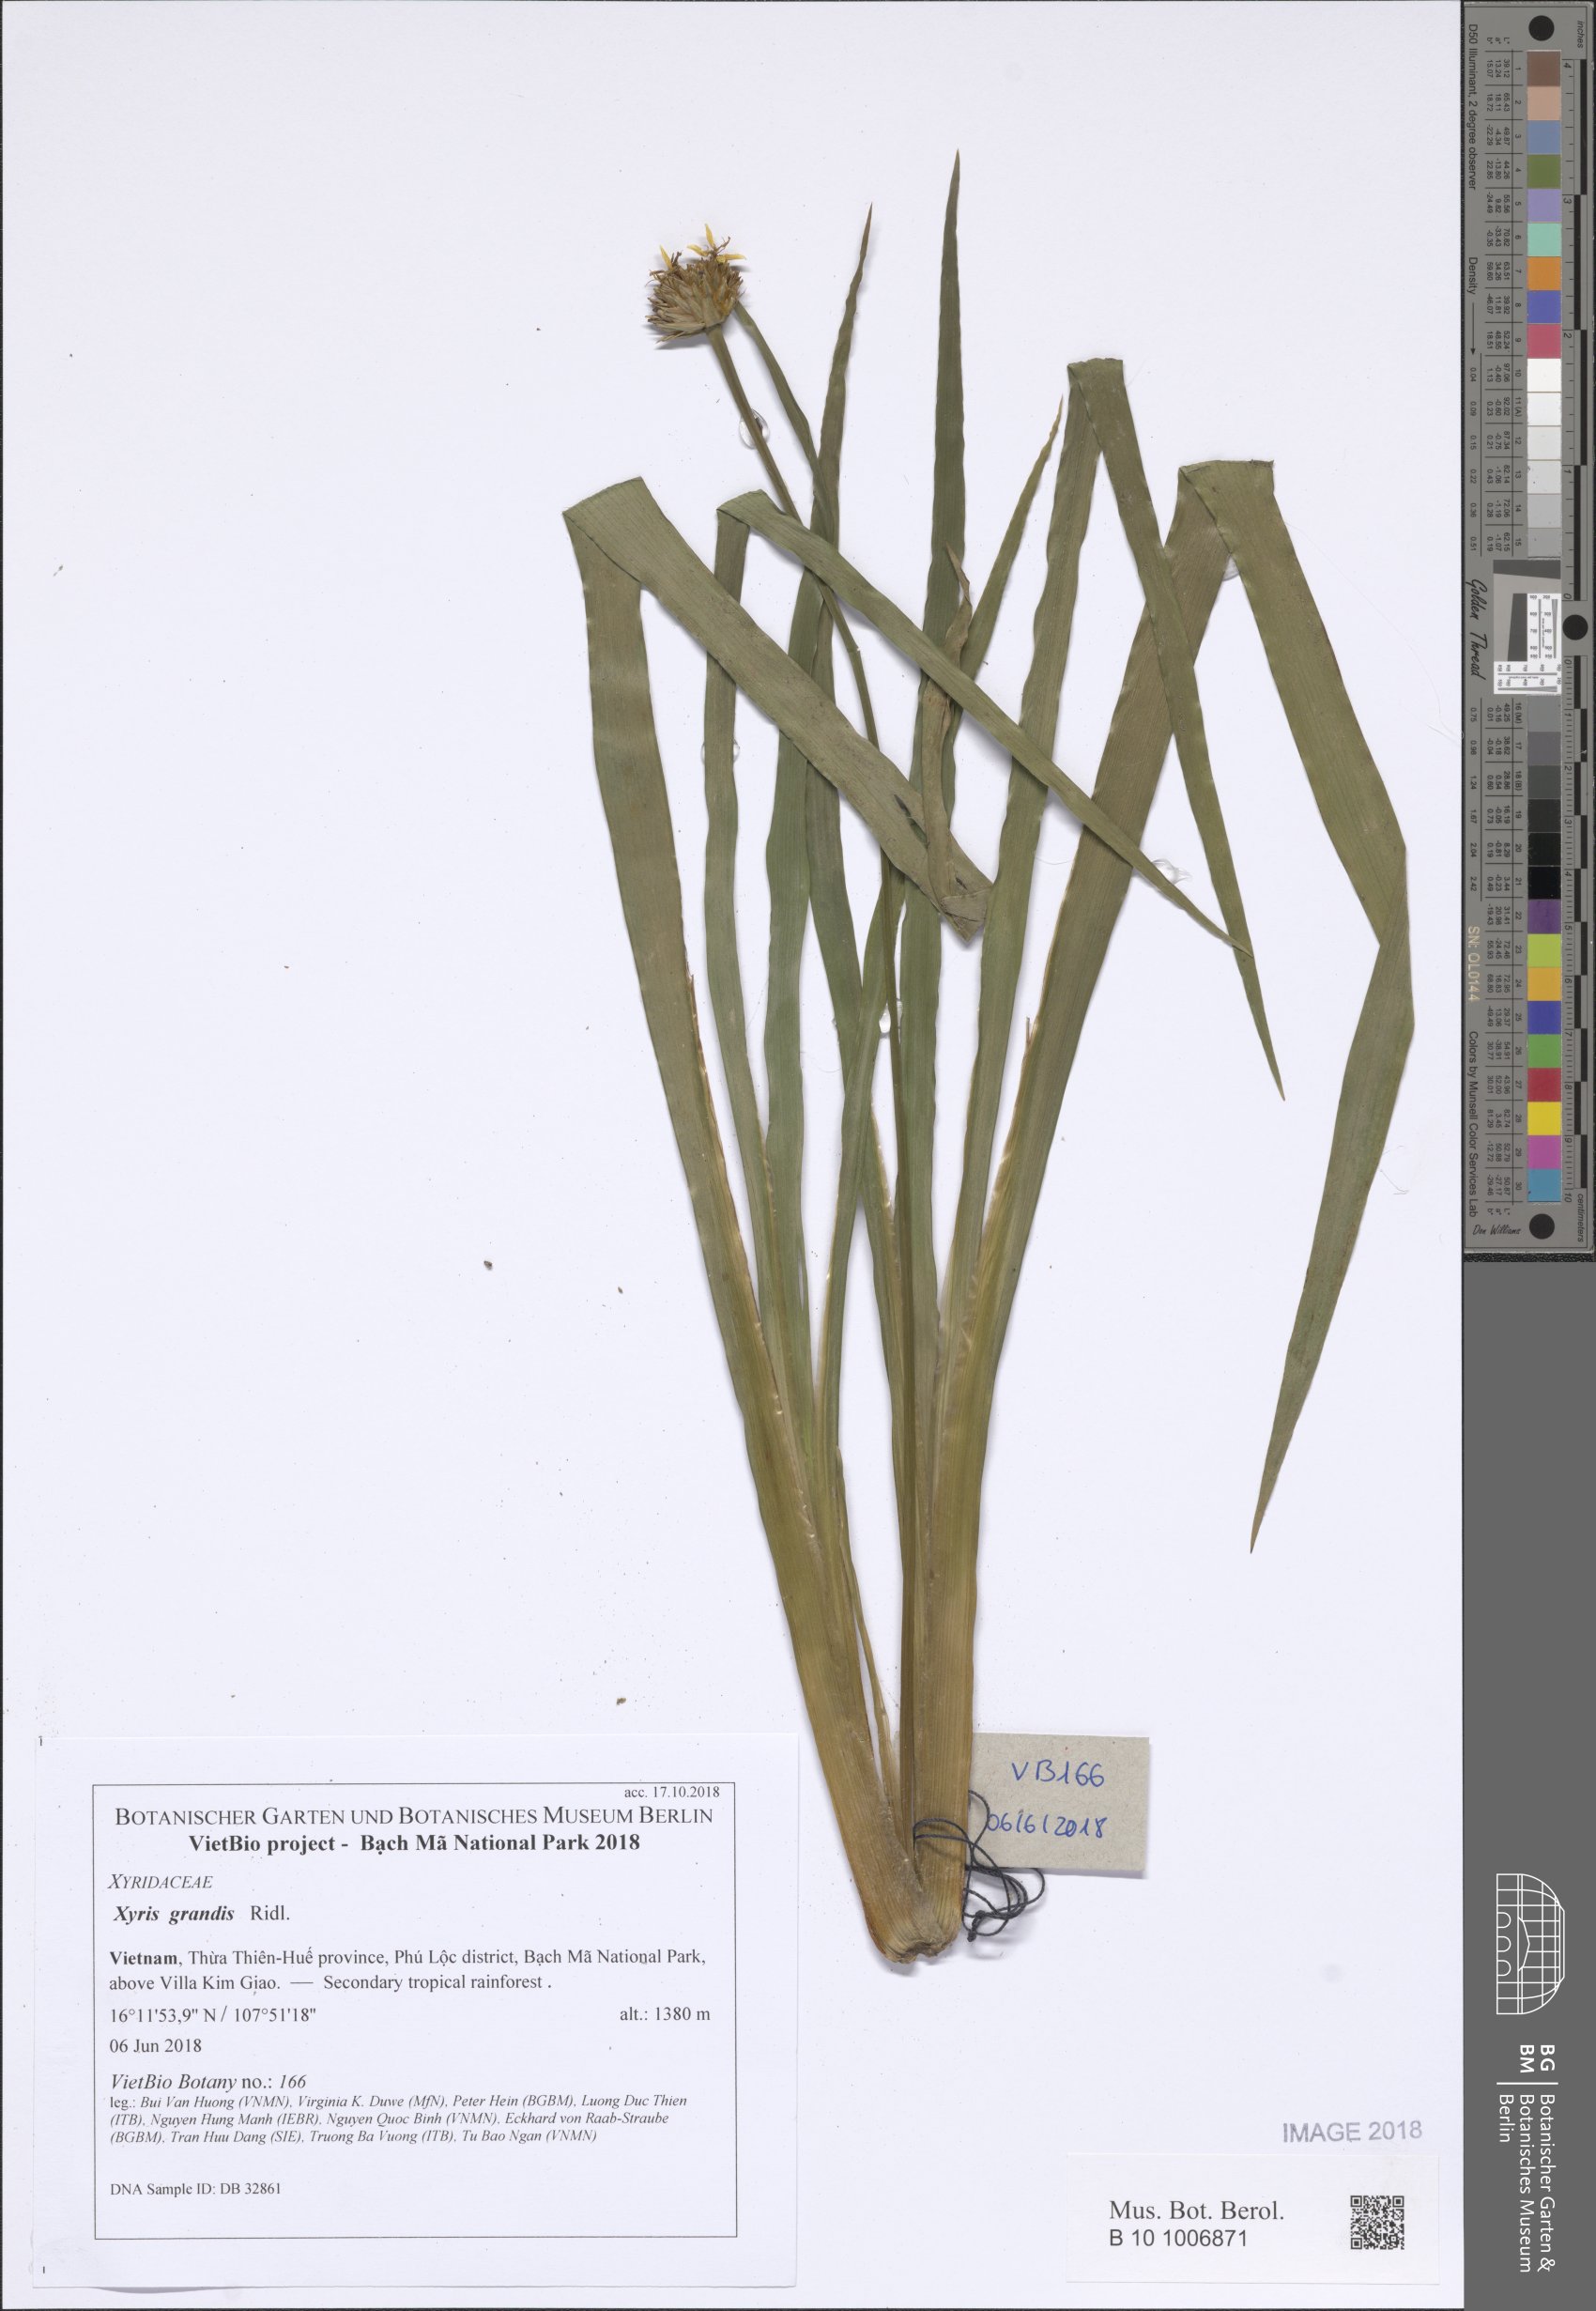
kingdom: Plantae
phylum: Tracheophyta
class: Liliopsida
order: Poales
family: Xyridaceae
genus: Xyris
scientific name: Xyris grandis
